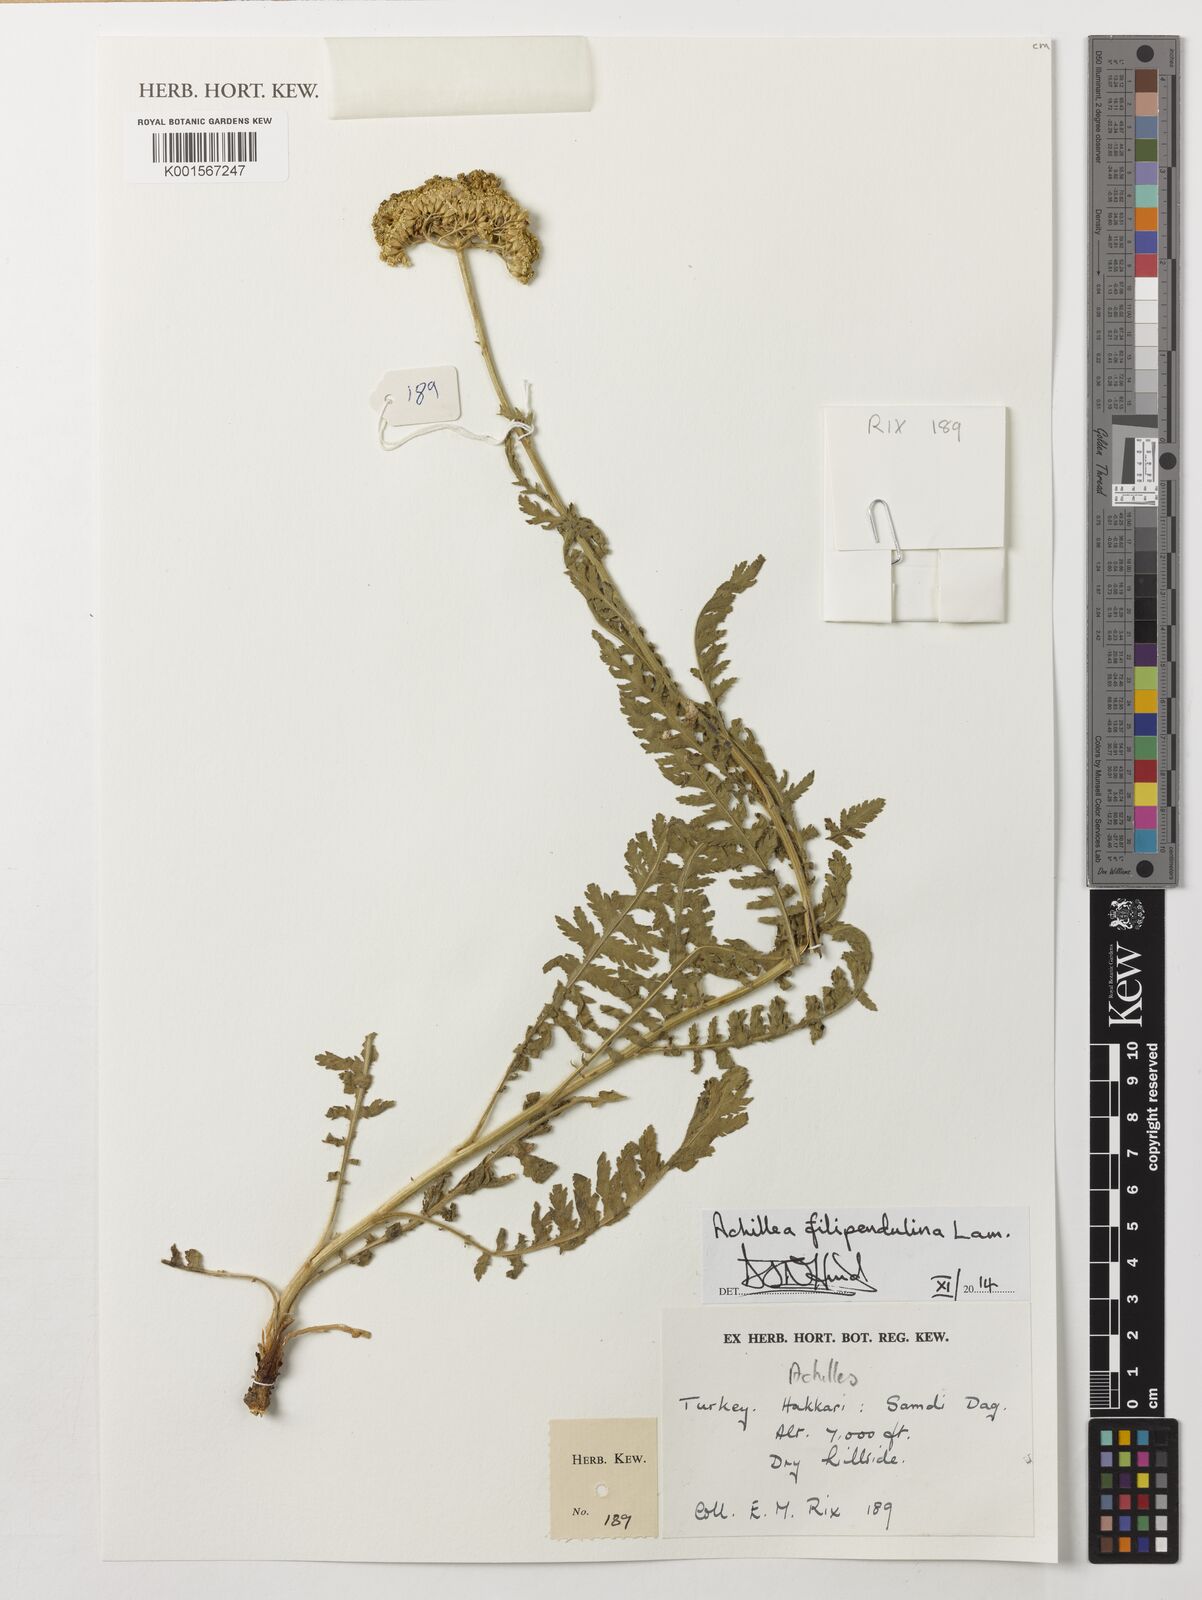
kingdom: Plantae
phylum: Tracheophyta
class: Magnoliopsida
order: Asterales
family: Asteraceae
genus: Achillea
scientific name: Achillea filipendulina
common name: Fernleaf yarrow
